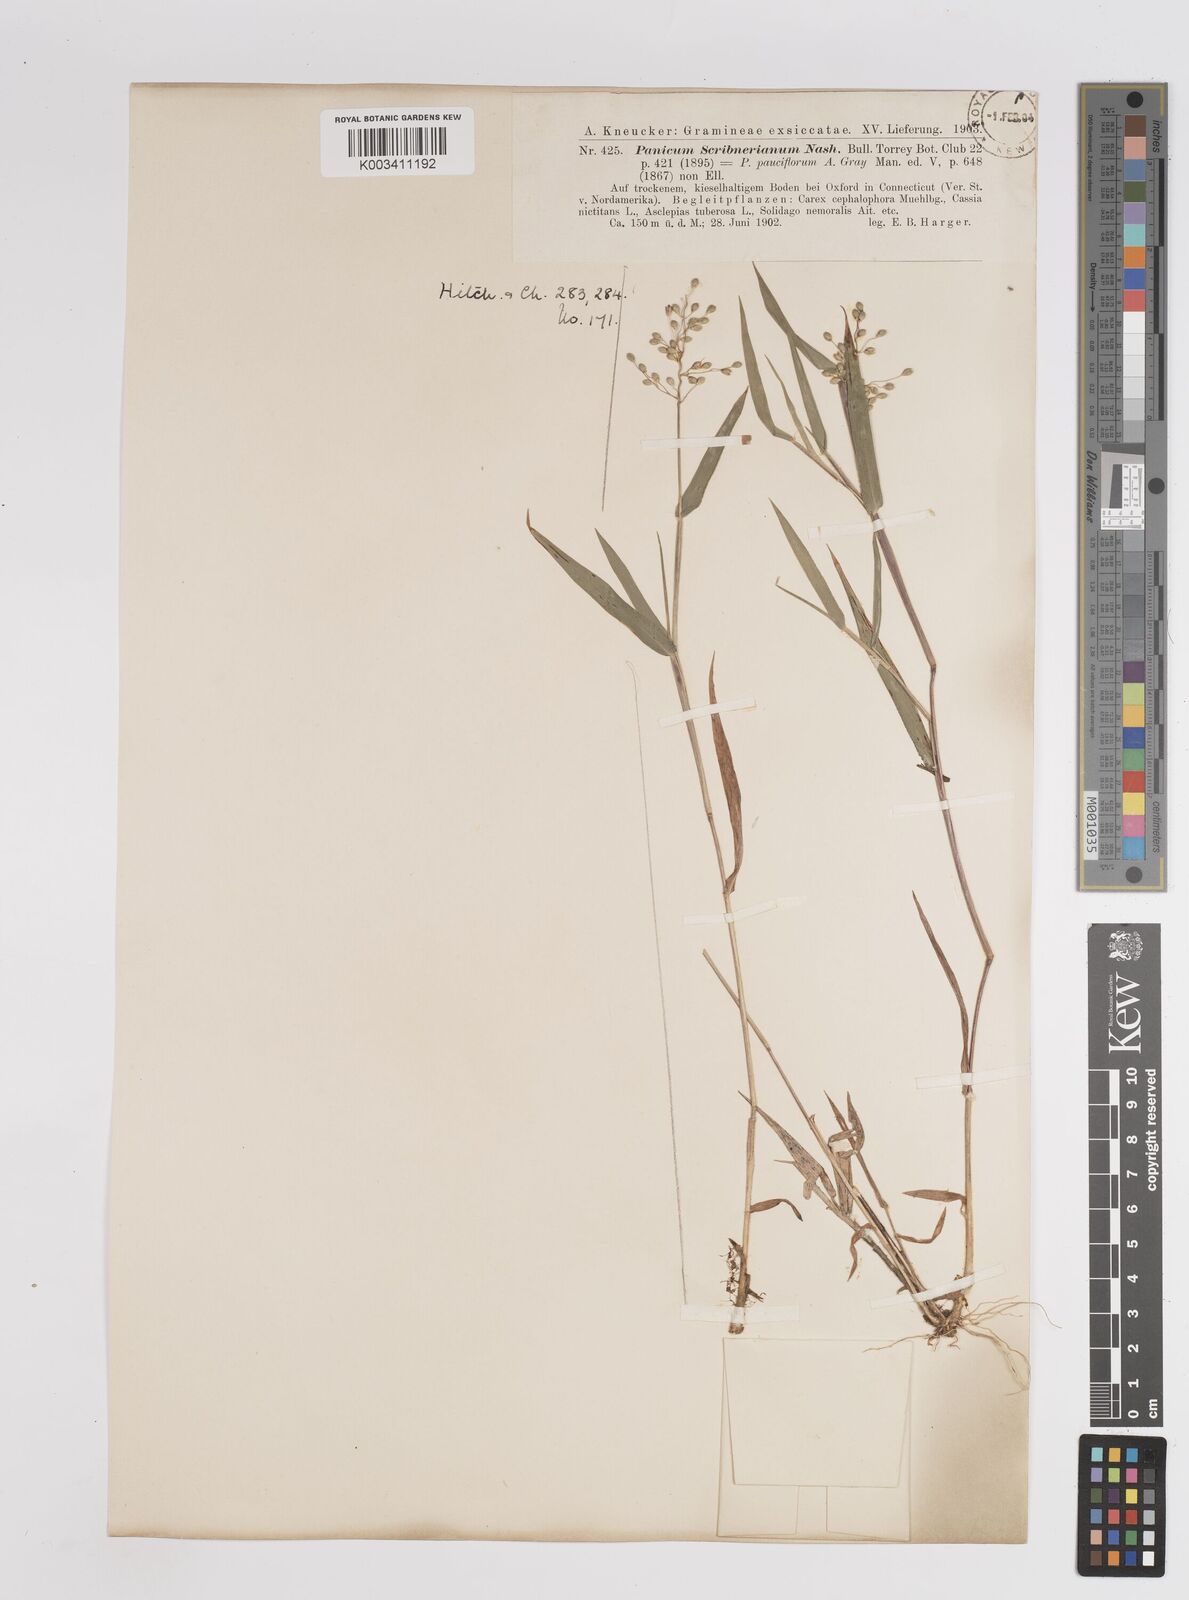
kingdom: Plantae
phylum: Tracheophyta
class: Liliopsida
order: Poales
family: Poaceae
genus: Dichanthelium
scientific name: Dichanthelium oligosanthes
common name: Few-anther obscuregrass
